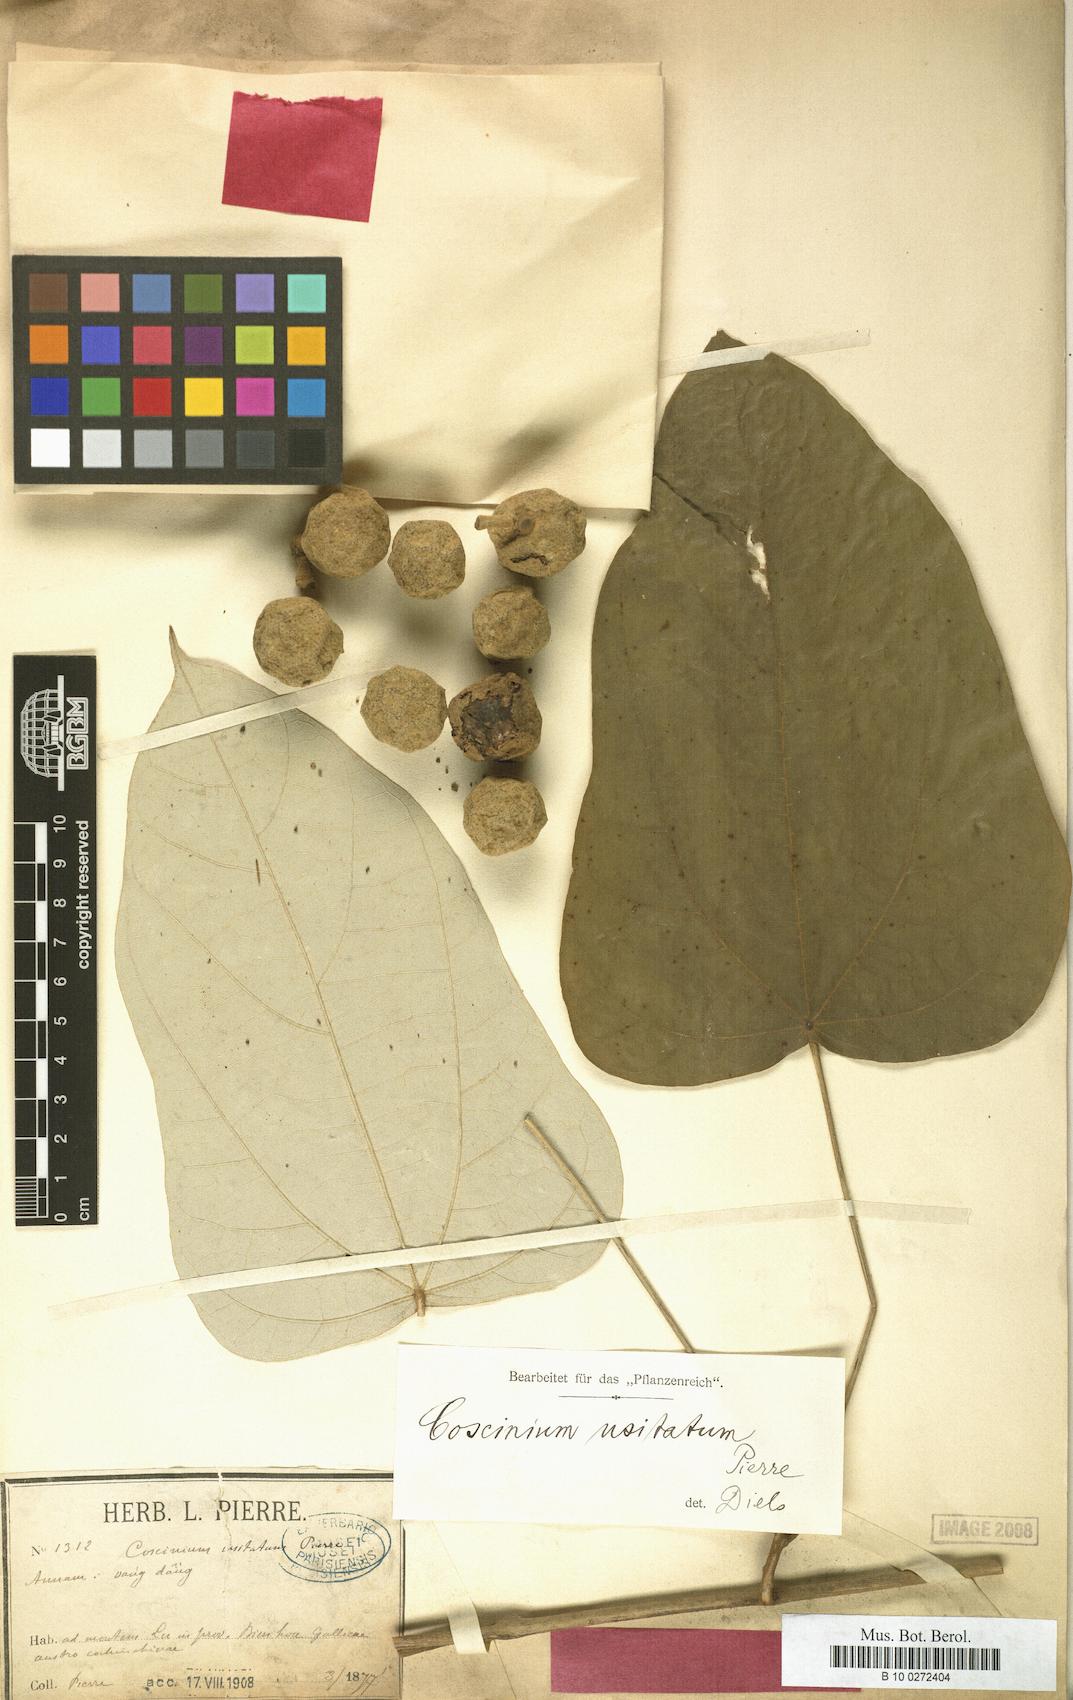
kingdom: Plantae
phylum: Tracheophyta
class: Magnoliopsida
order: Ranunculales
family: Menispermaceae
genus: Coscinium
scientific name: Coscinium fenestratum
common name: False calumba
